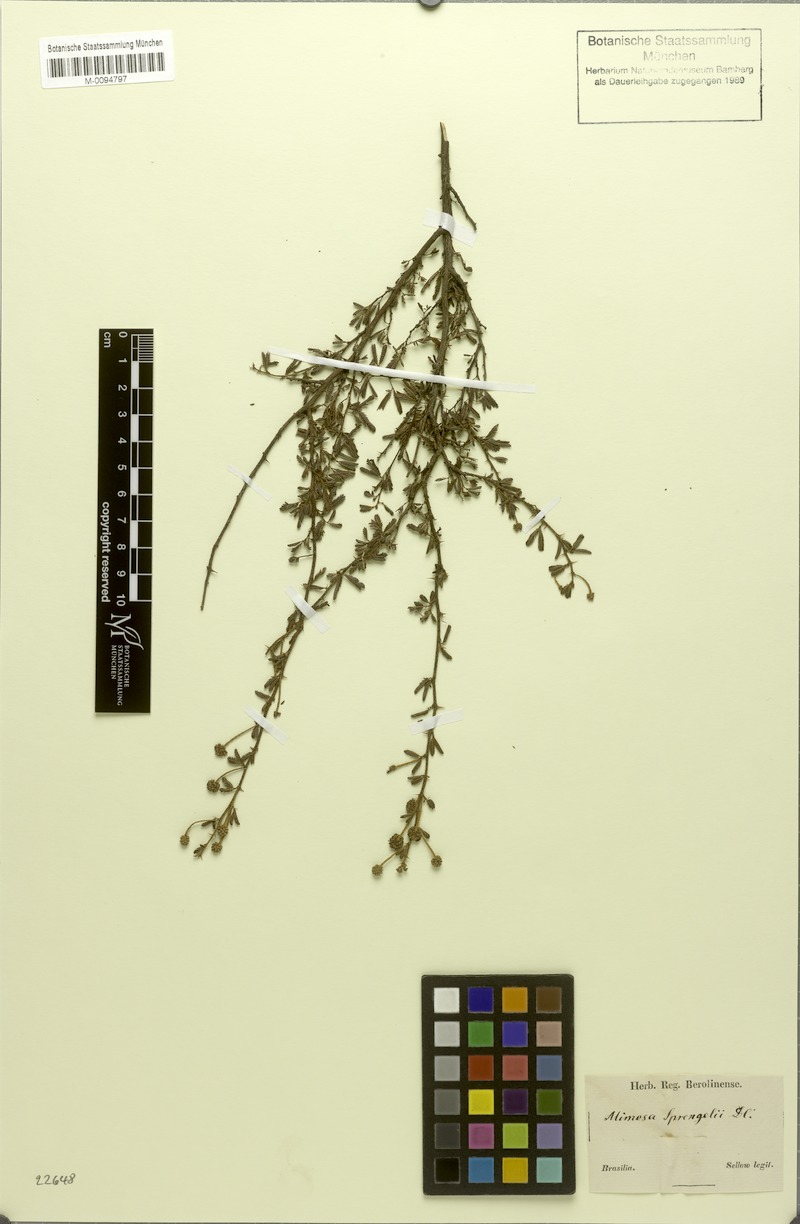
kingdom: Plantae
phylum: Tracheophyta
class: Magnoliopsida
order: Fabales
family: Fabaceae
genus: Mimosa
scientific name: Mimosa sprengelii
